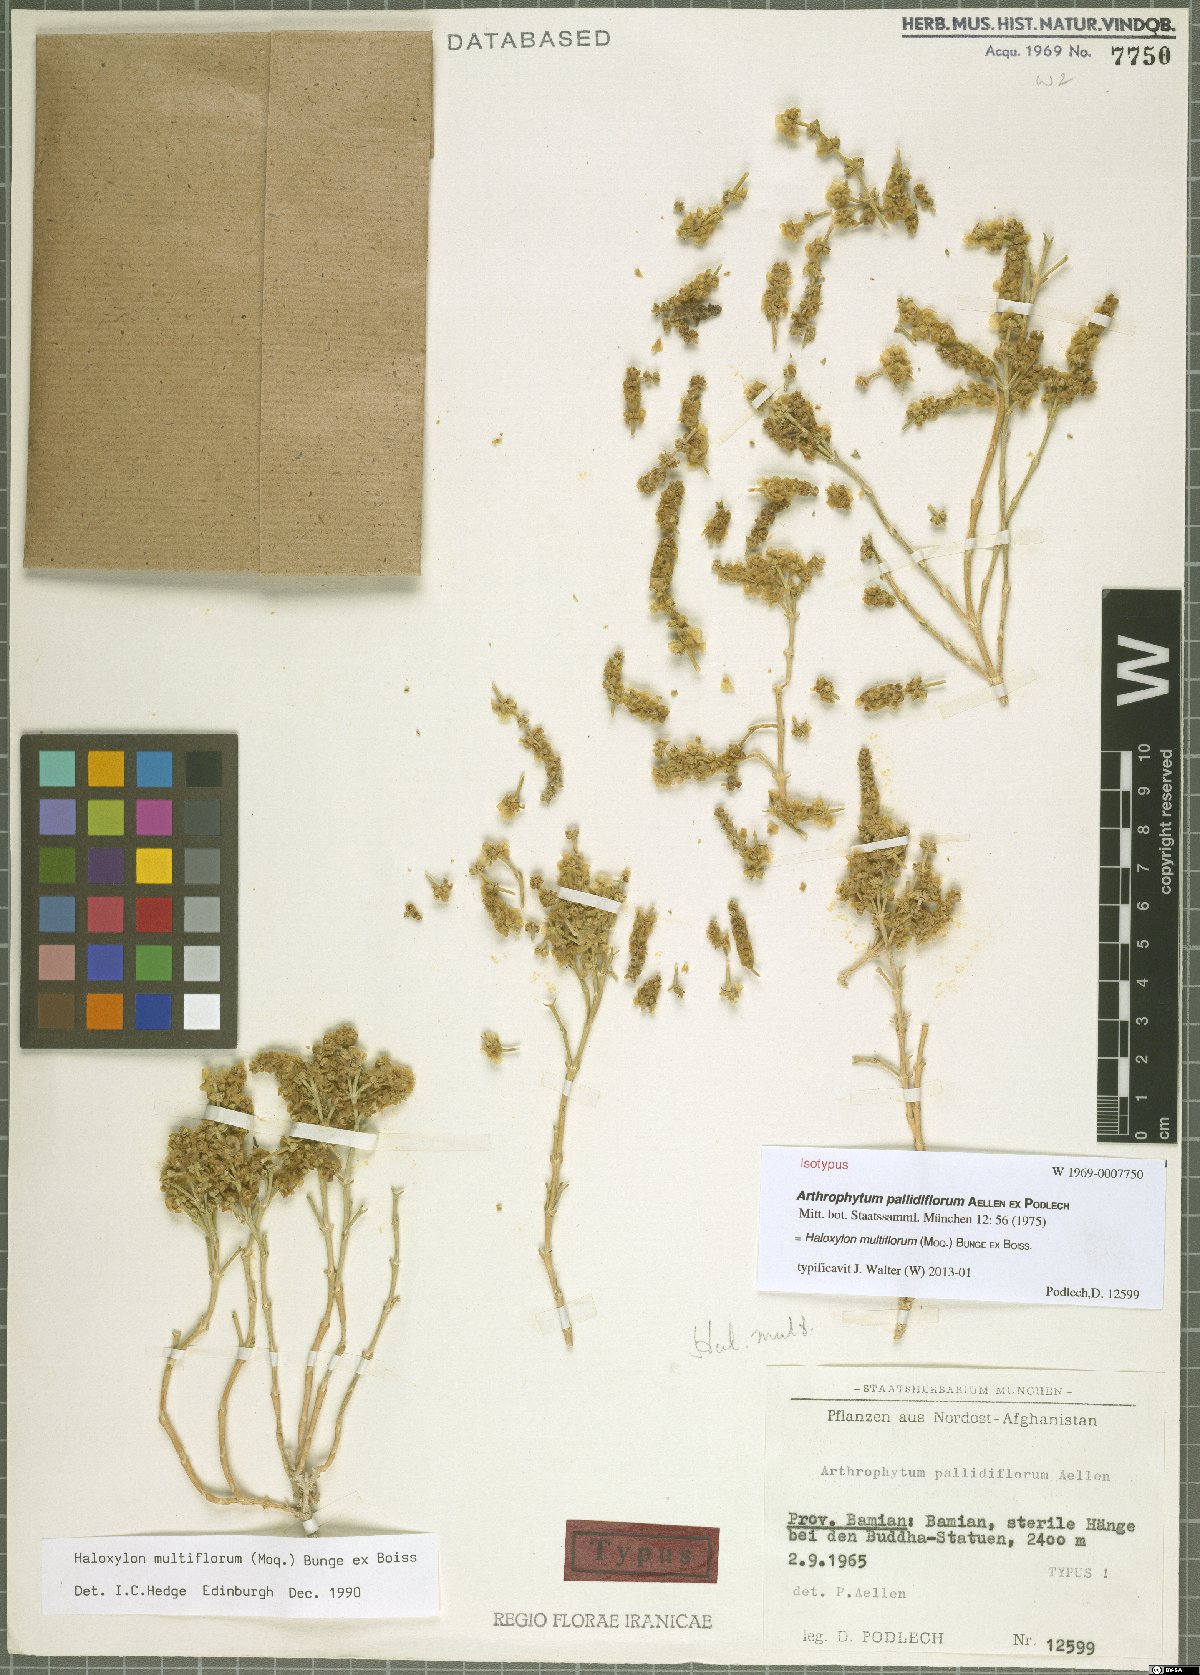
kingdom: Plantae
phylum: Tracheophyta
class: Magnoliopsida
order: Caryophyllales
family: Amaranthaceae
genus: Haloxylon
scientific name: Haloxylon multiflorum
